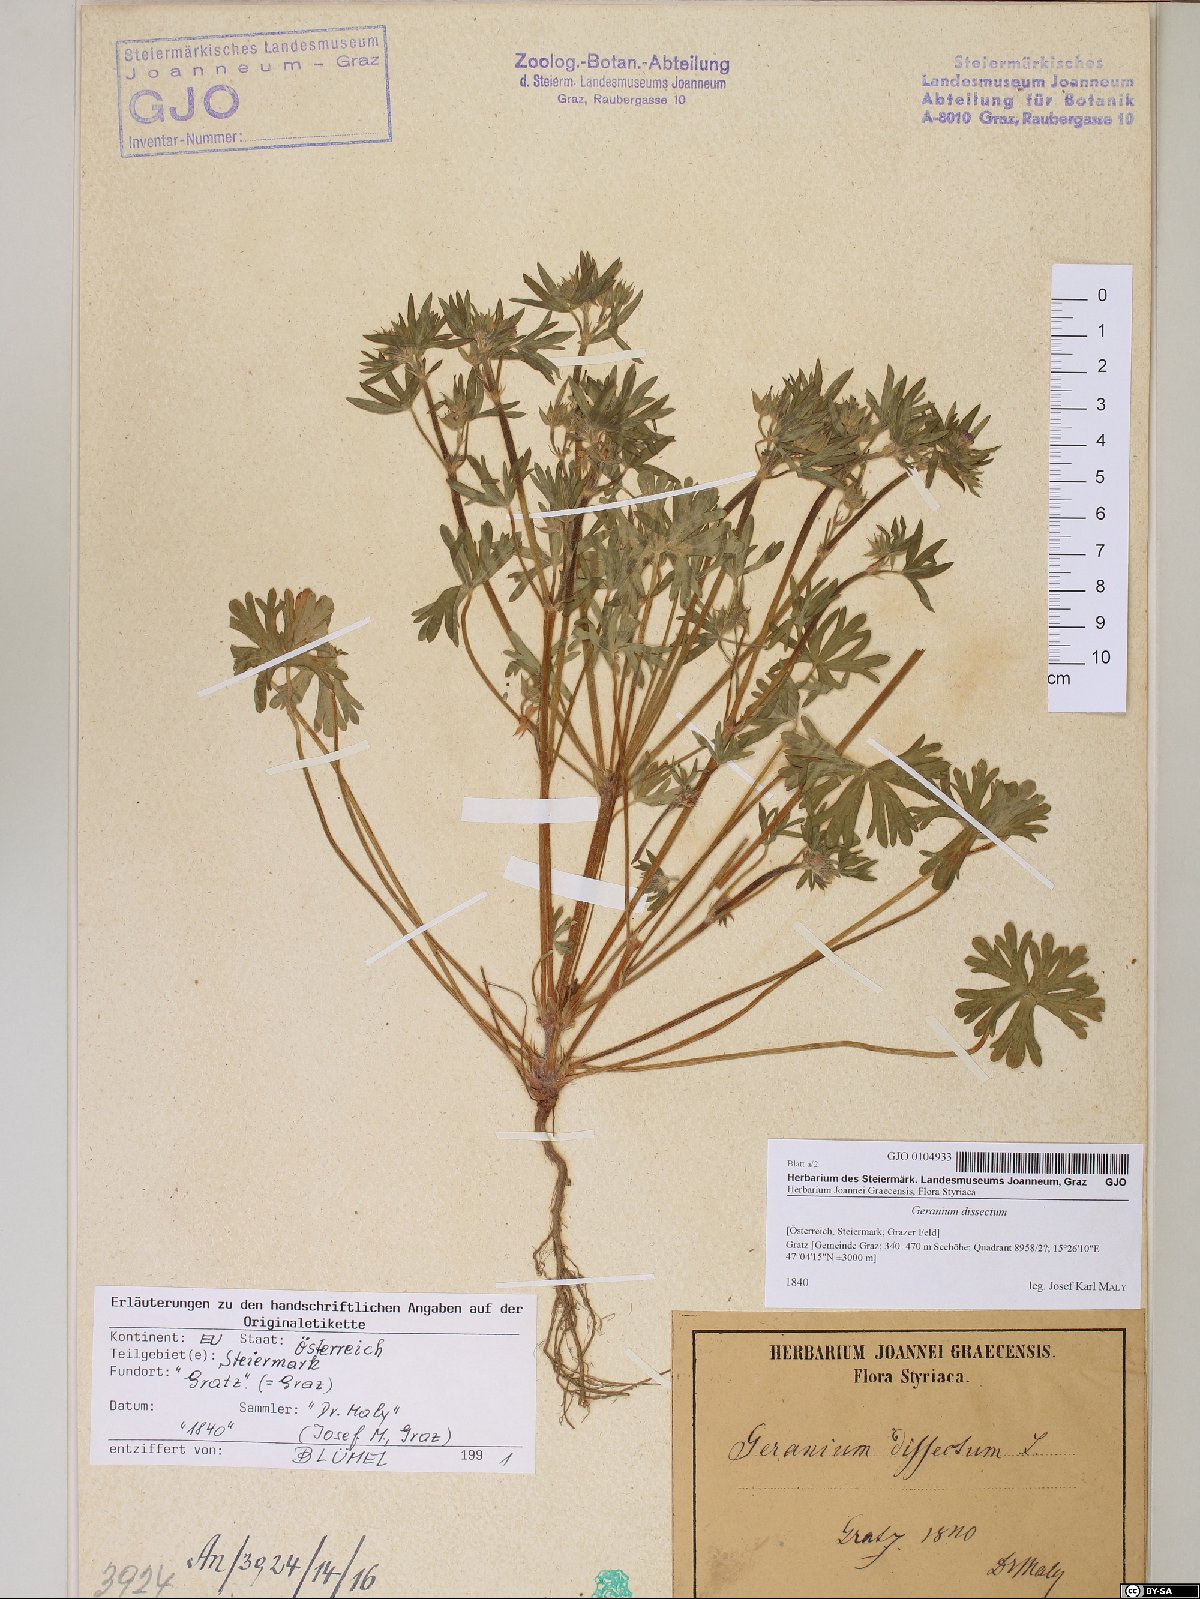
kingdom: Plantae
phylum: Tracheophyta
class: Magnoliopsida
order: Geraniales
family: Geraniaceae
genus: Geranium
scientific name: Geranium dissectum
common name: Cut-leaved crane's-bill
